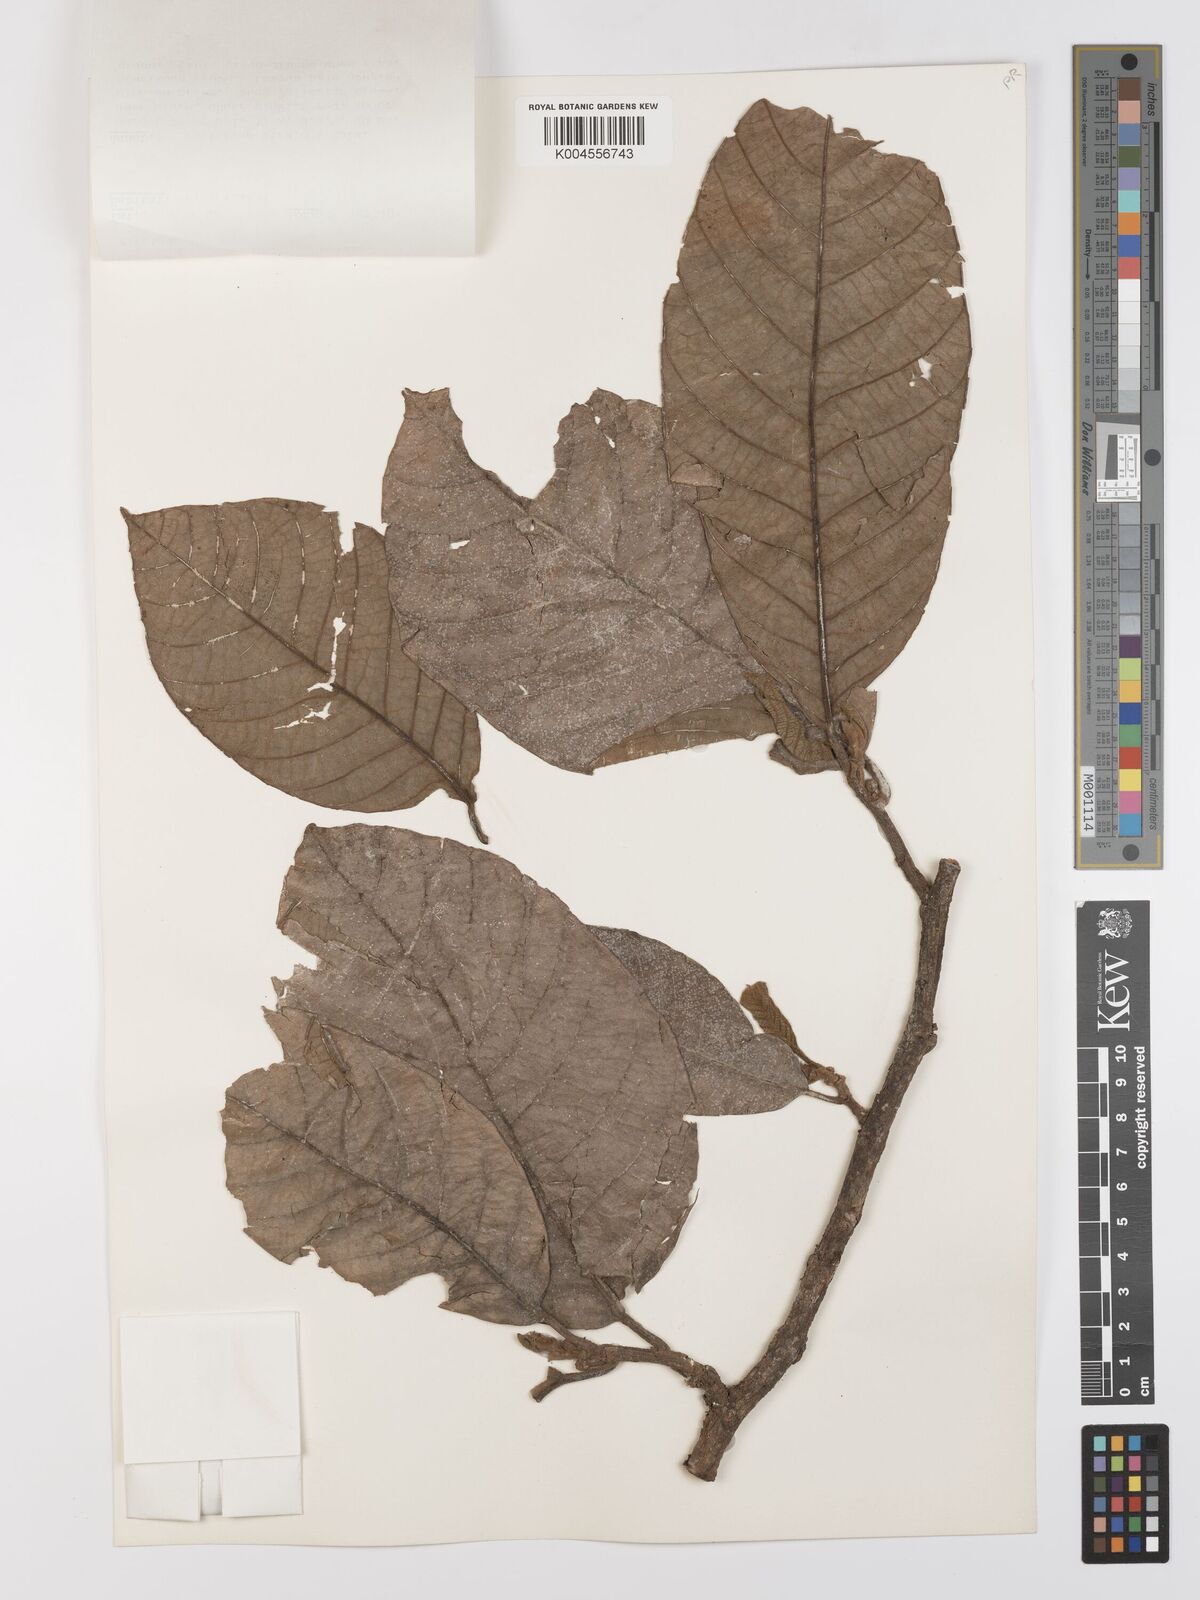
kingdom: Plantae
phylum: Tracheophyta
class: Magnoliopsida
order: Rosales
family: Moraceae
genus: Artocarpus
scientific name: Artocarpus vrieseanus
